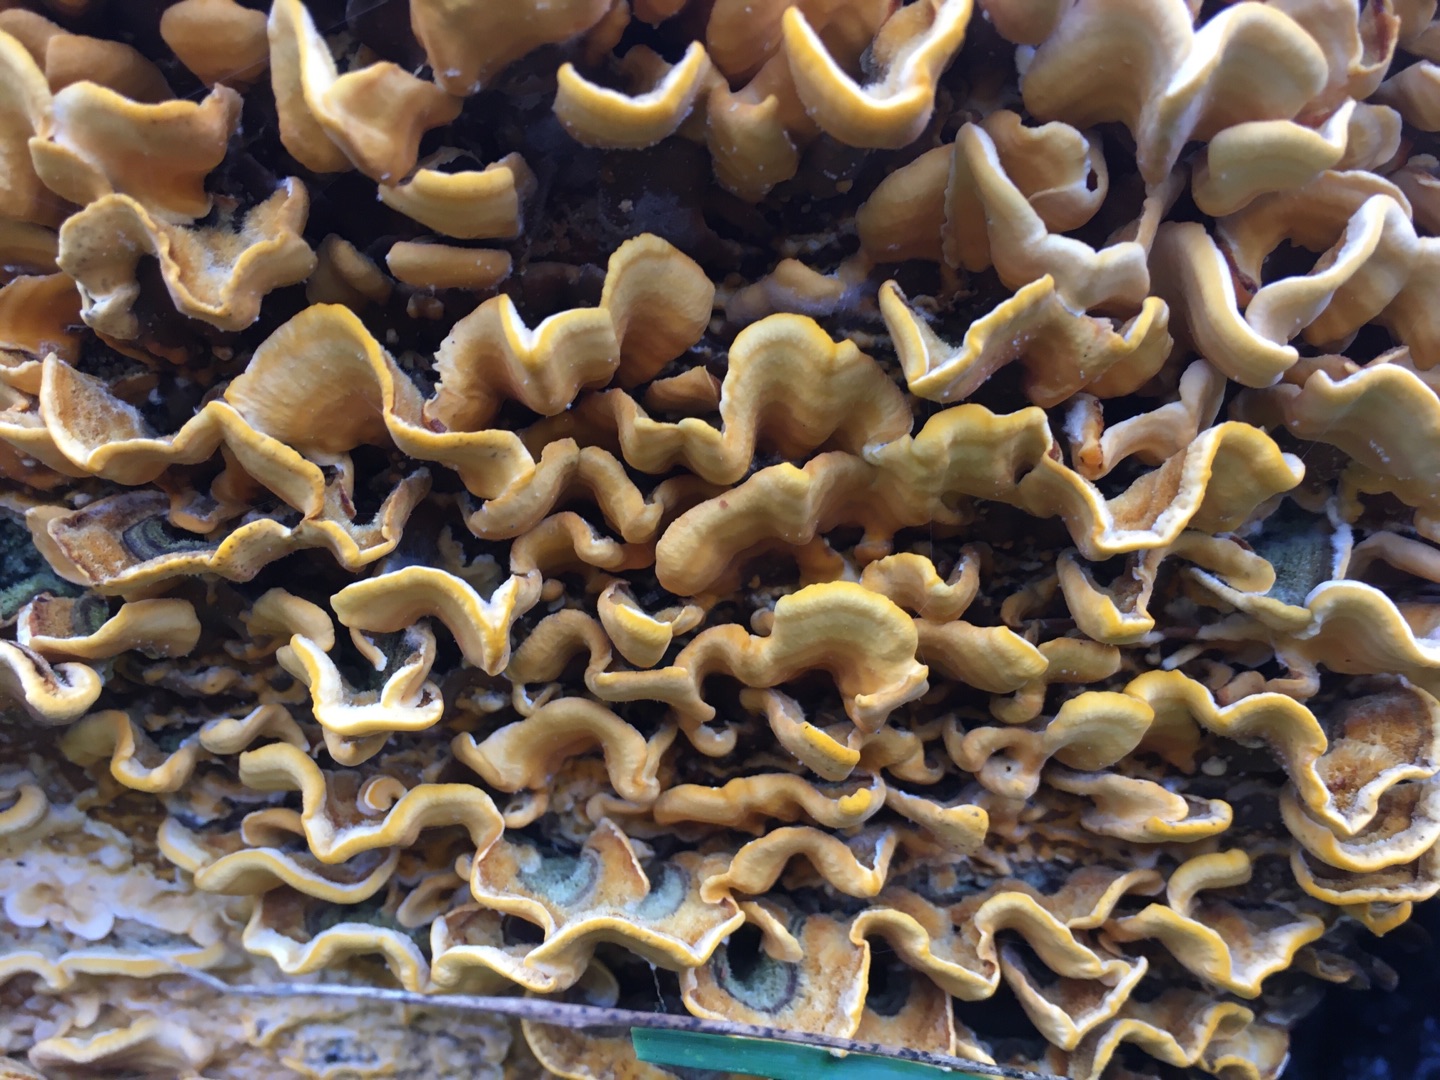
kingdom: Fungi
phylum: Basidiomycota
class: Agaricomycetes
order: Russulales
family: Stereaceae
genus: Stereum
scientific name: Stereum hirsutum
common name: Håret lædersvamp
